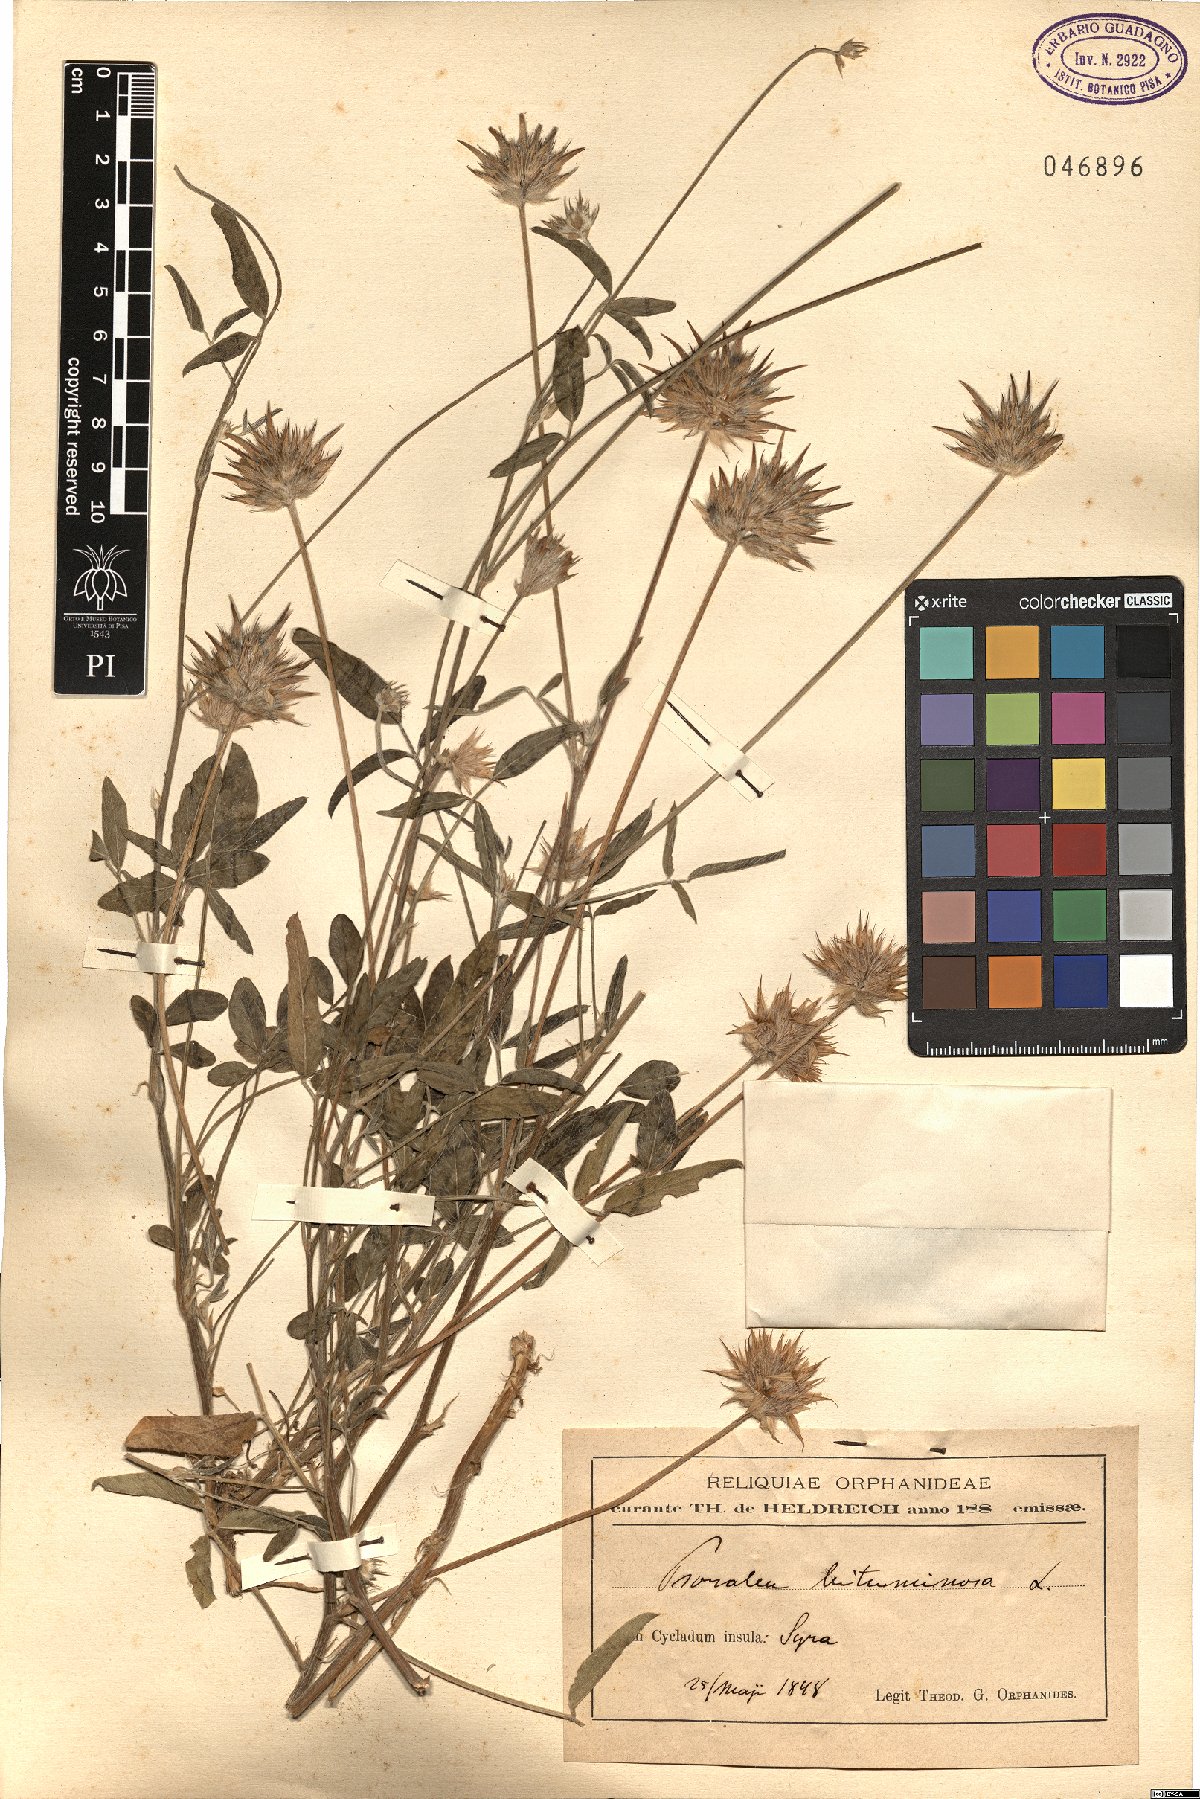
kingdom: Plantae
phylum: Tracheophyta
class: Magnoliopsida
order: Fabales
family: Fabaceae
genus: Bituminaria
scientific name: Bituminaria bituminosa
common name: Arabian pea
